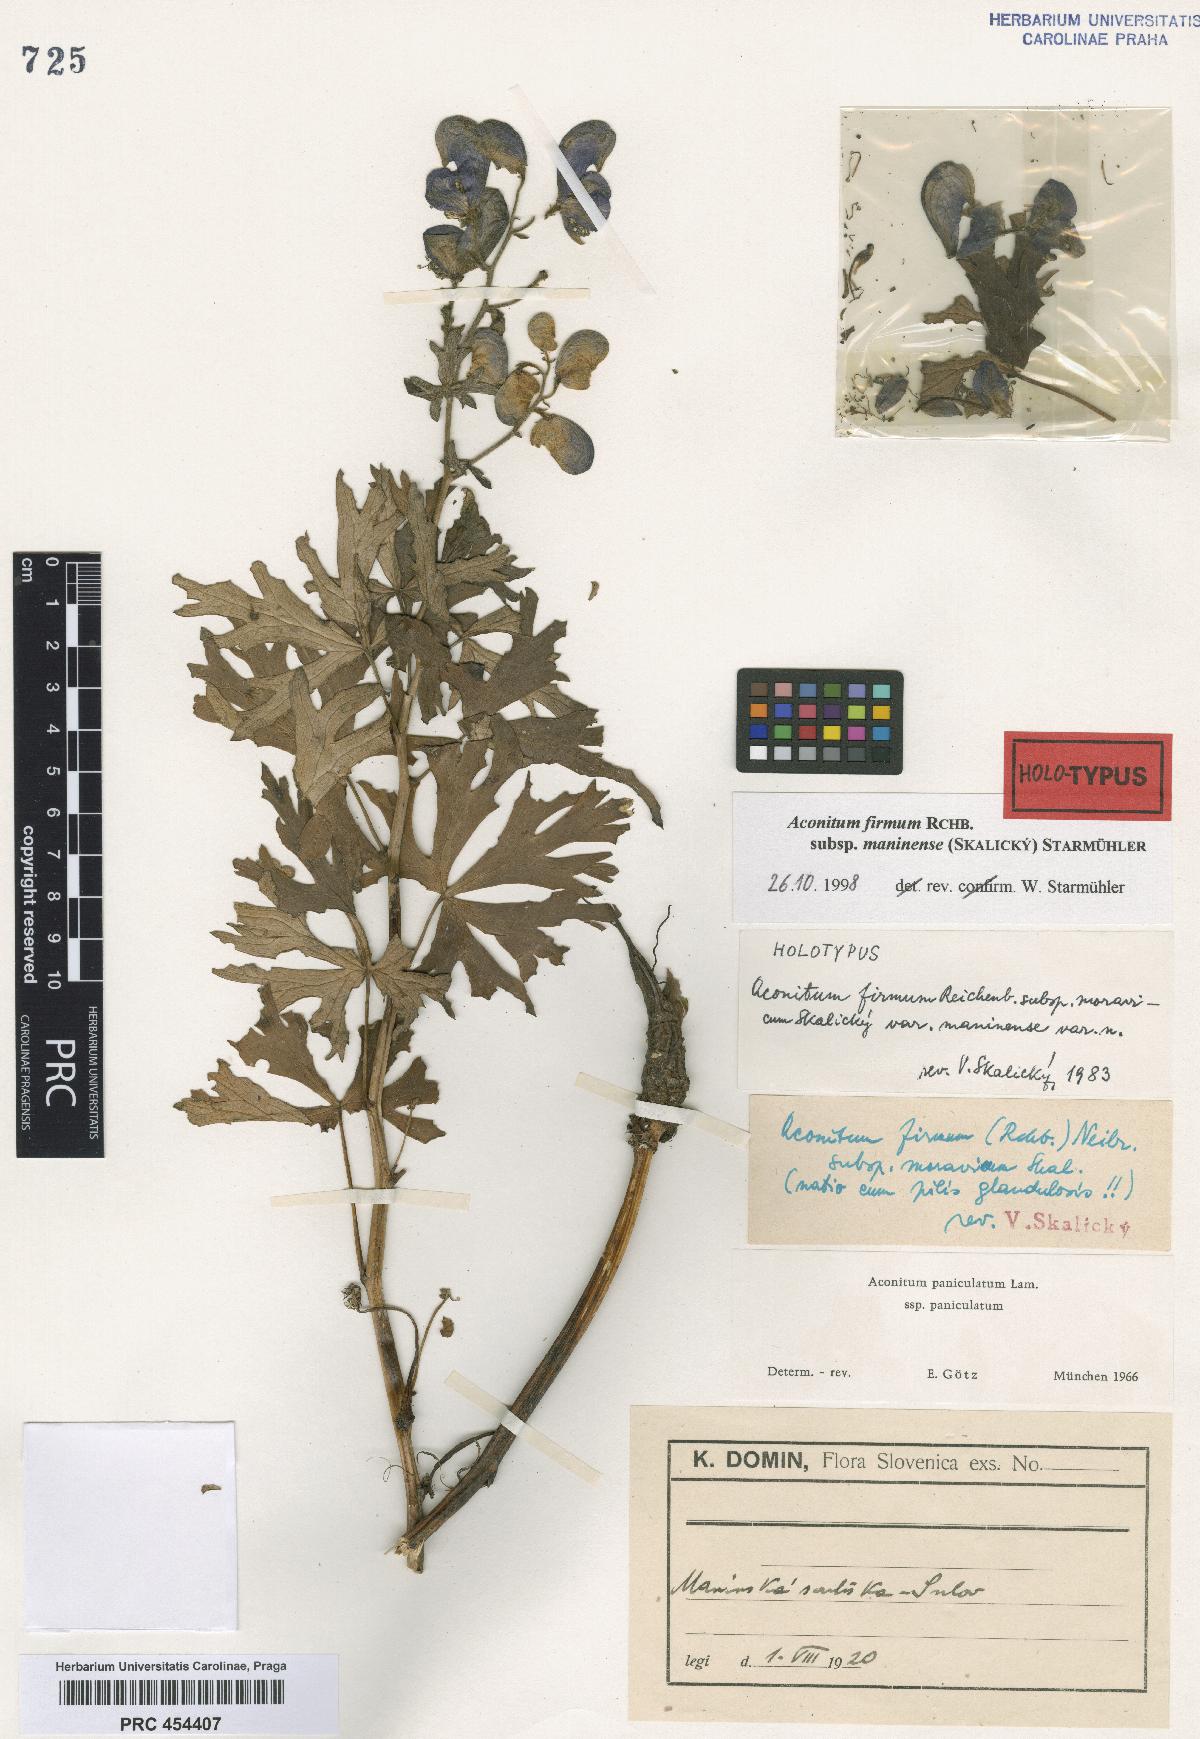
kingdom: Plantae
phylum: Tracheophyta
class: Magnoliopsida
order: Ranunculales
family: Ranunculaceae
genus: Aconitum
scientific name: Aconitum maninense
